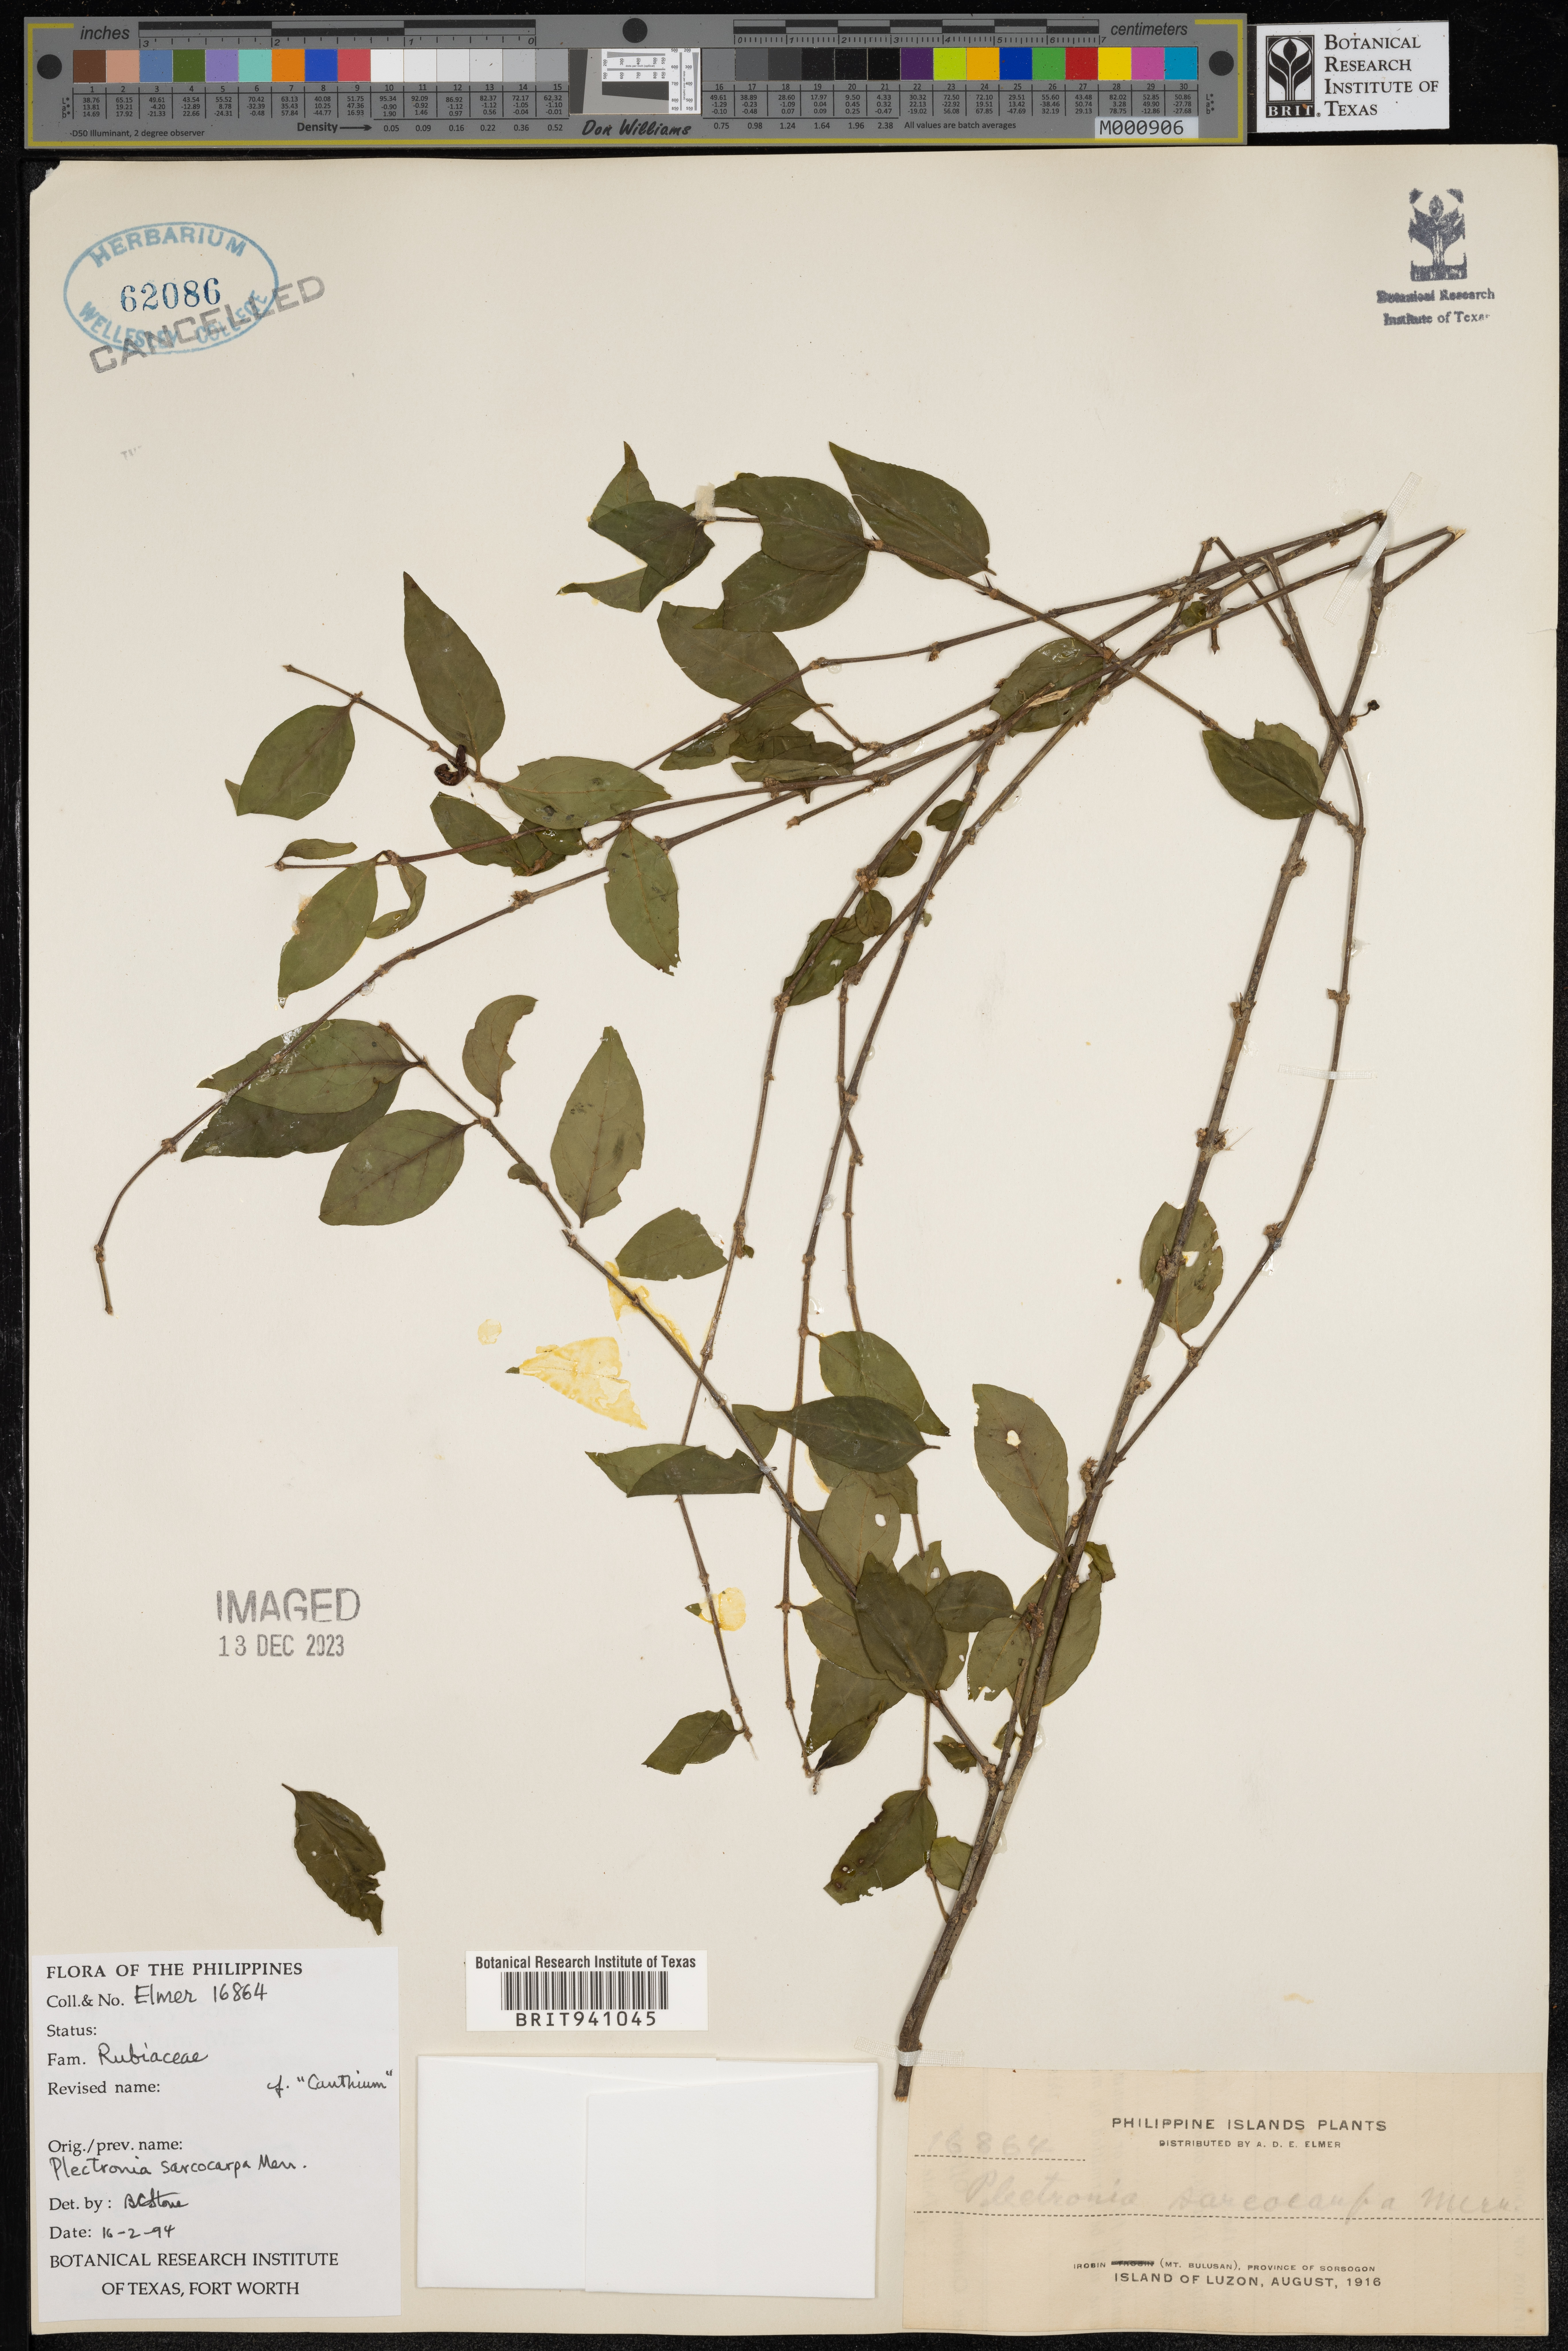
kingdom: Plantae
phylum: Tracheophyta
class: Magnoliopsida
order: Myrtales
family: Lythraceae
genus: Plectronia
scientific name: Plectronia
